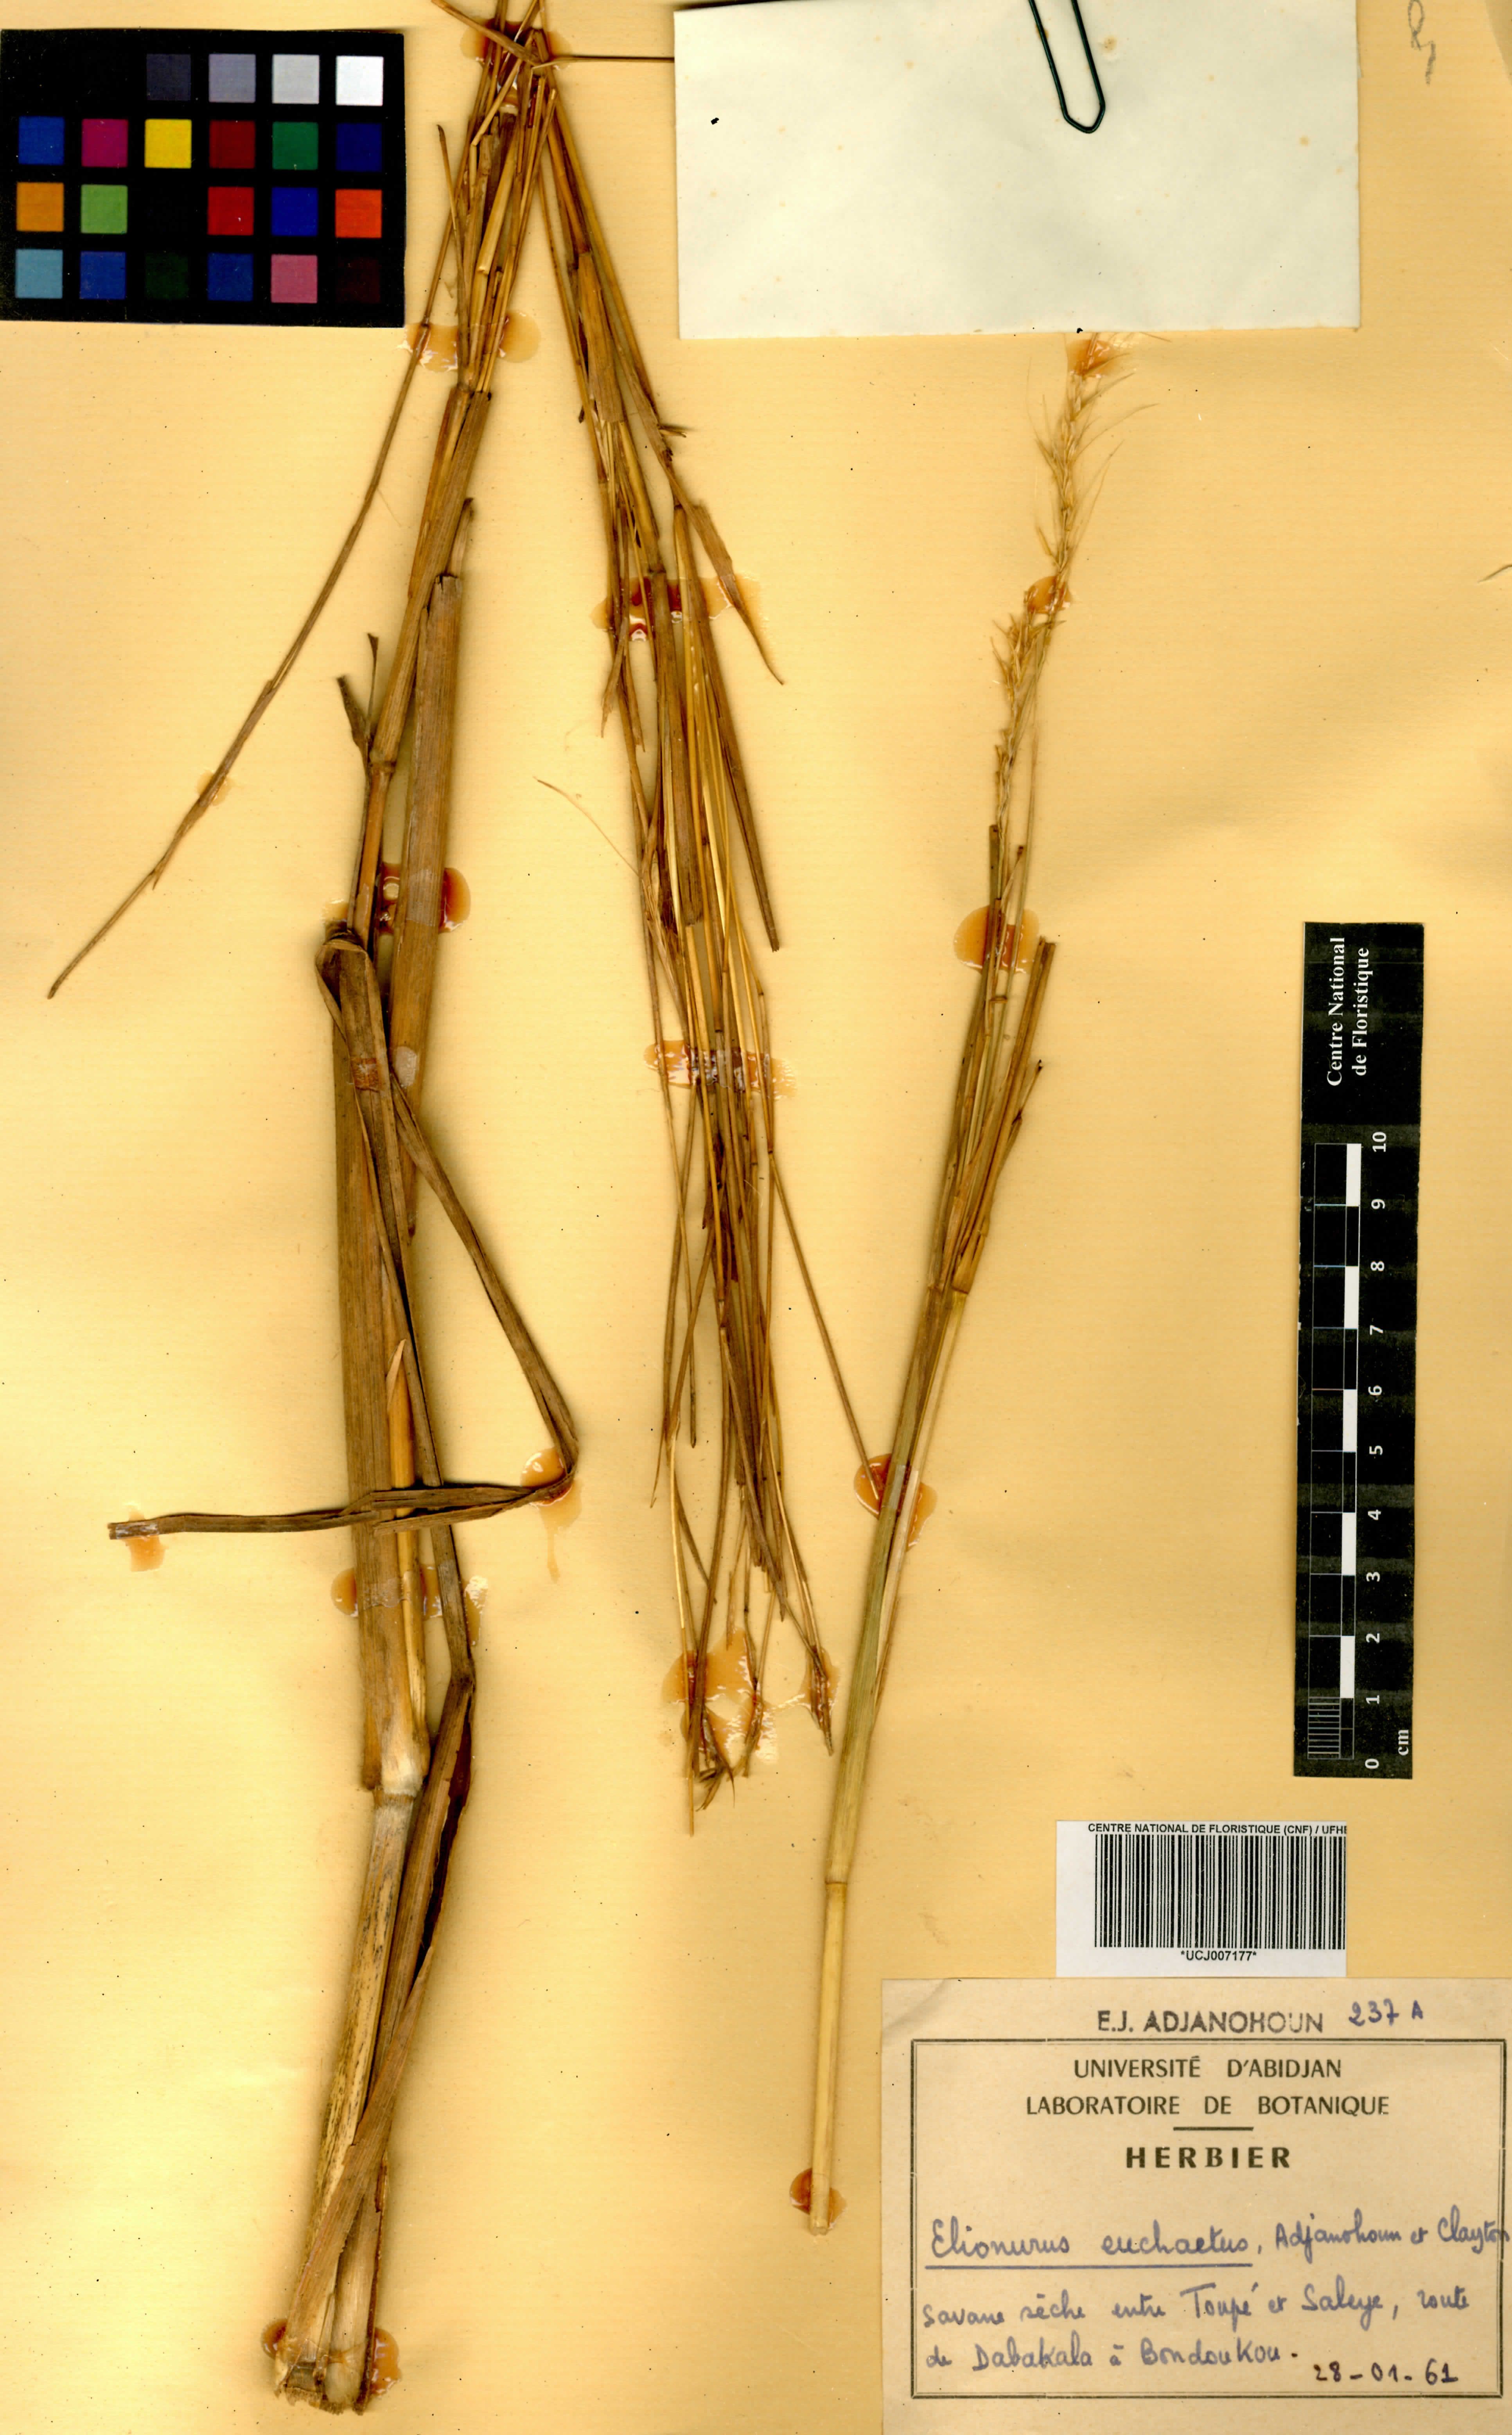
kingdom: Plantae
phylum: Tracheophyta
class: Liliopsida
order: Poales
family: Poaceae
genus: Elionurus
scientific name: Elionurus euchaetus
